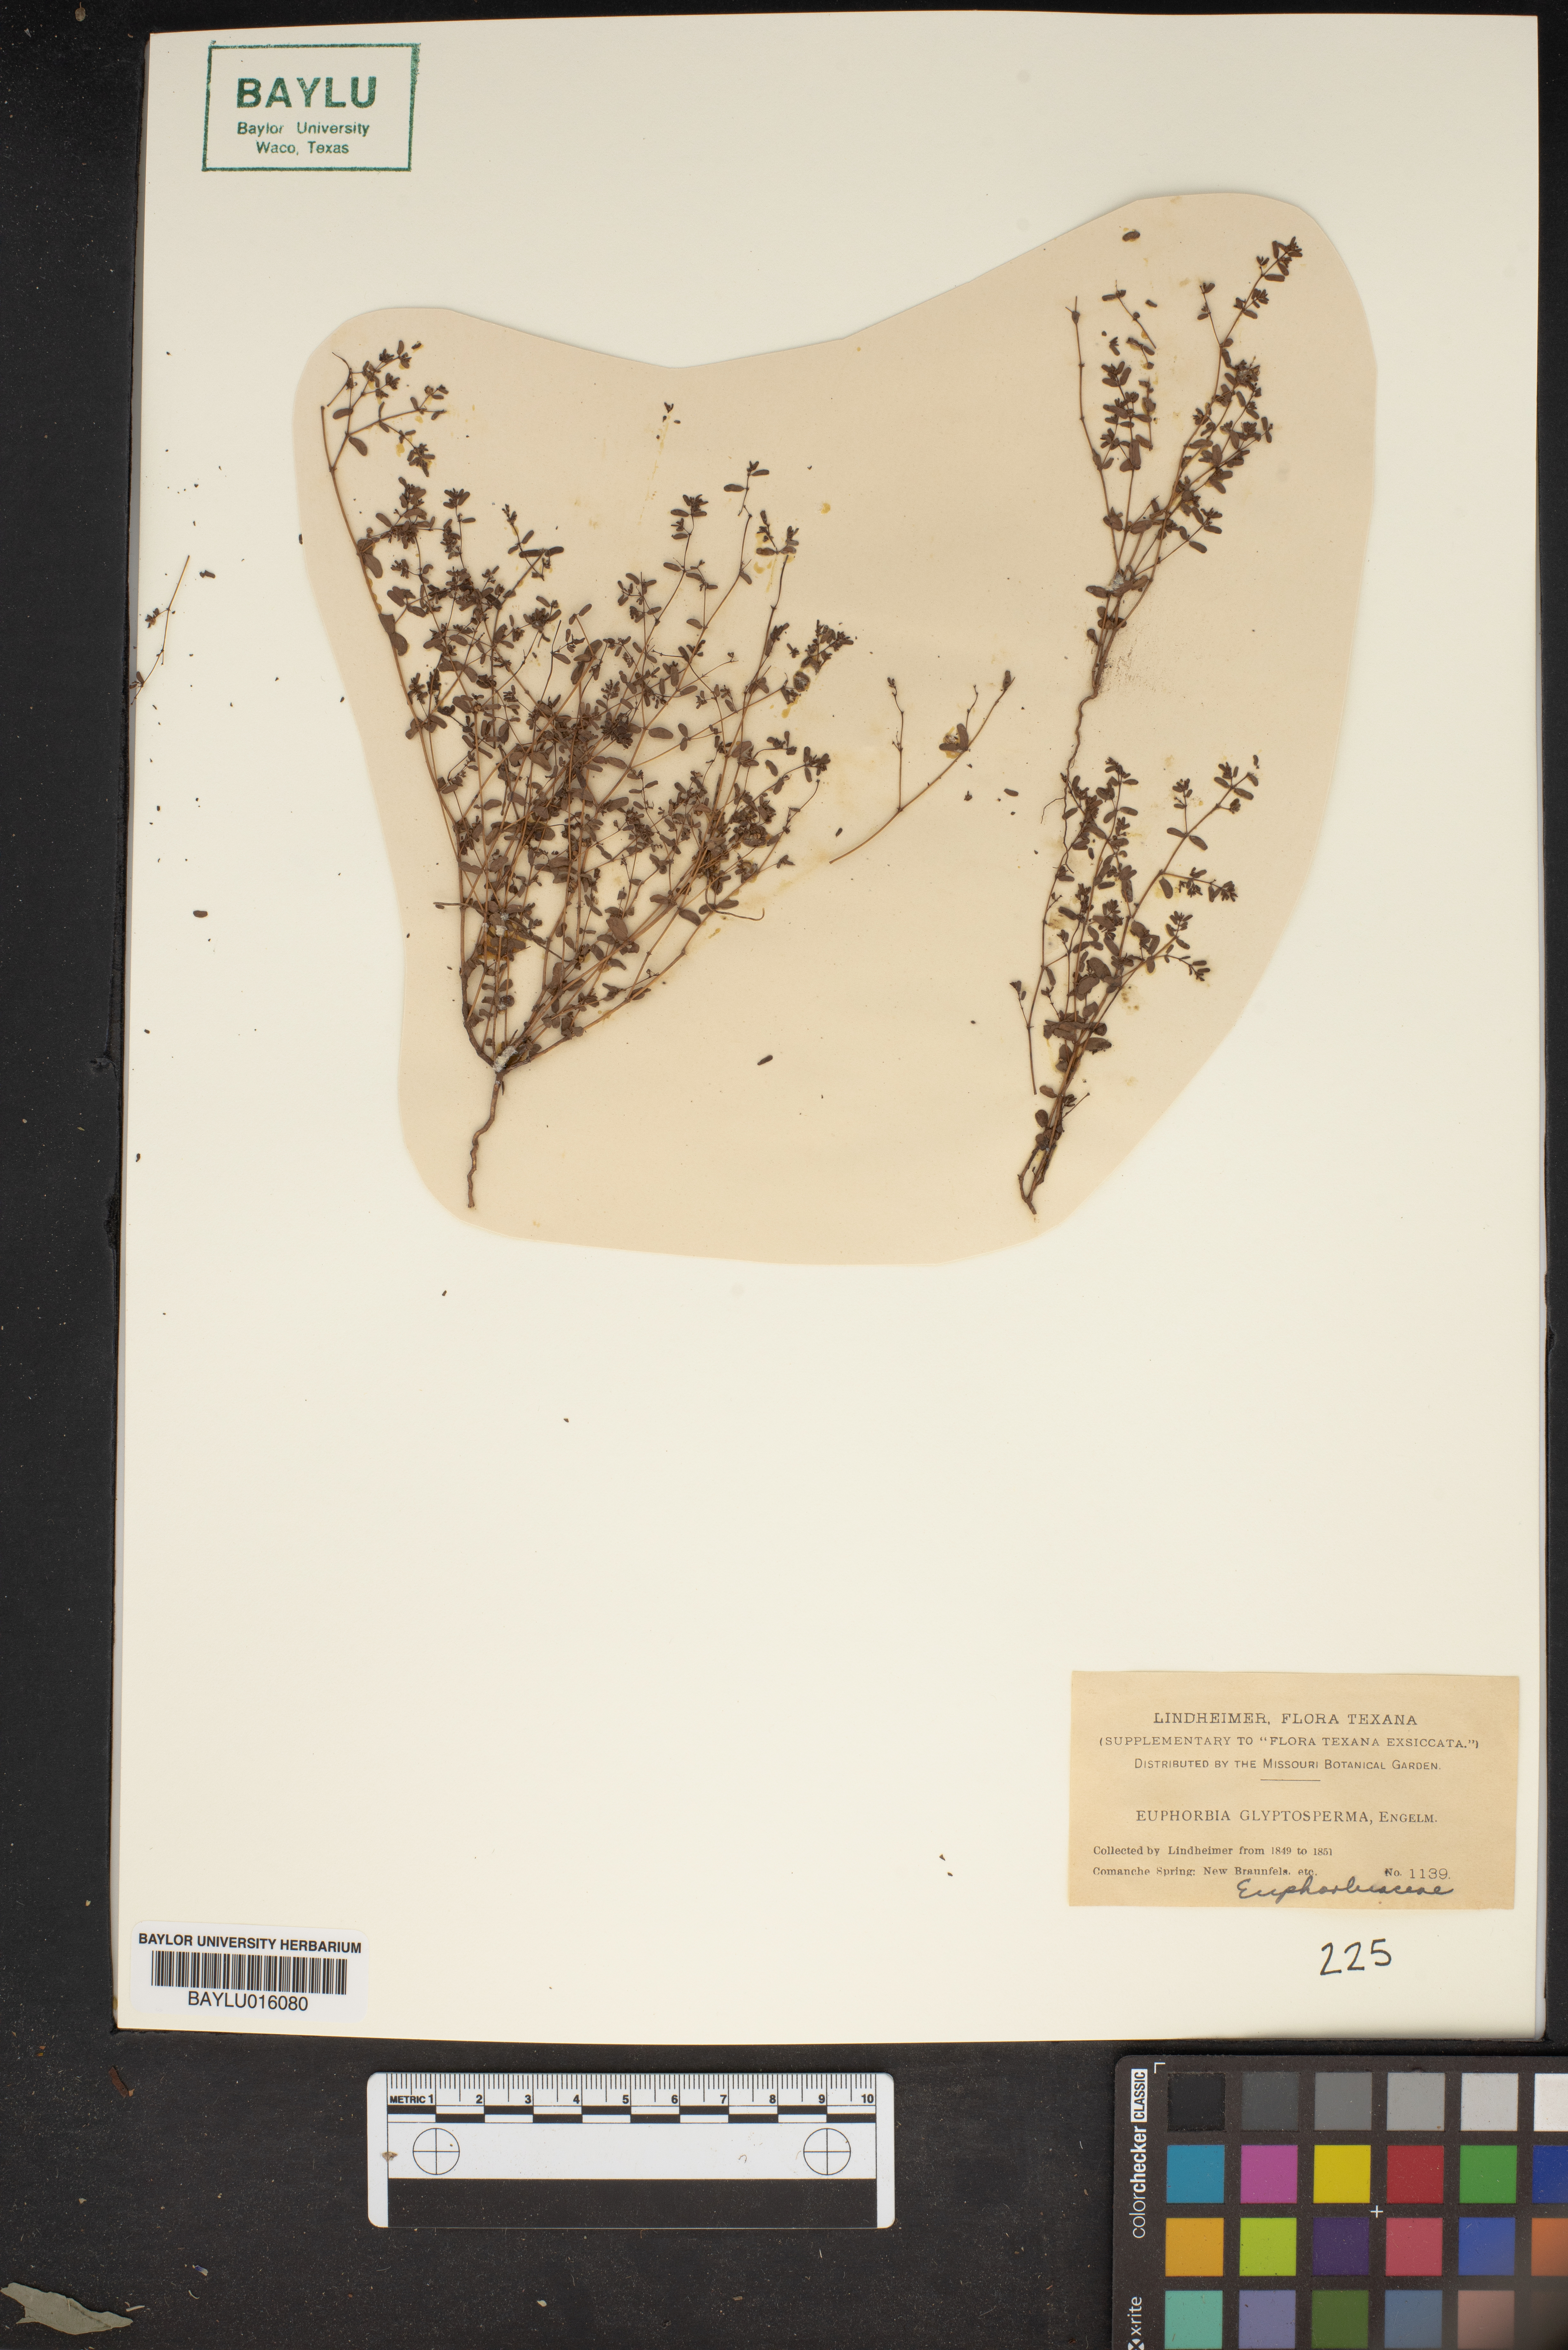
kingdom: Plantae
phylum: Tracheophyta
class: Magnoliopsida
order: Malpighiales
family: Euphorbiaceae
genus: Euphorbia
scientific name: Euphorbia glyptosperma
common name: Corrugate-seeded spurge
